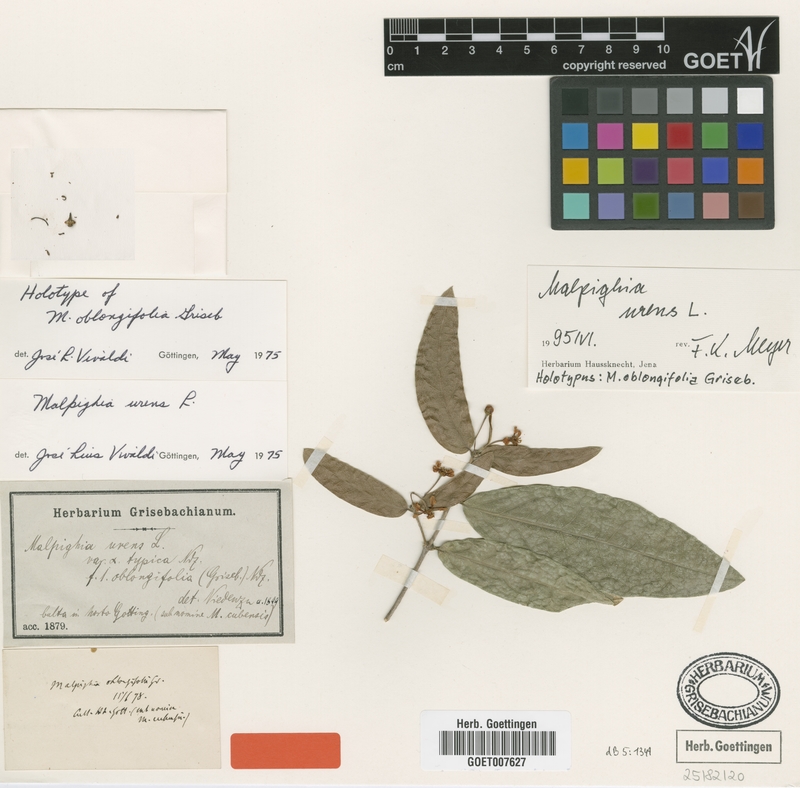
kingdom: Plantae
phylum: Tracheophyta
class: Magnoliopsida
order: Malpighiales
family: Malpighiaceae
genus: Malpighia
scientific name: Malpighia urens
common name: Cow-itch-cherry
